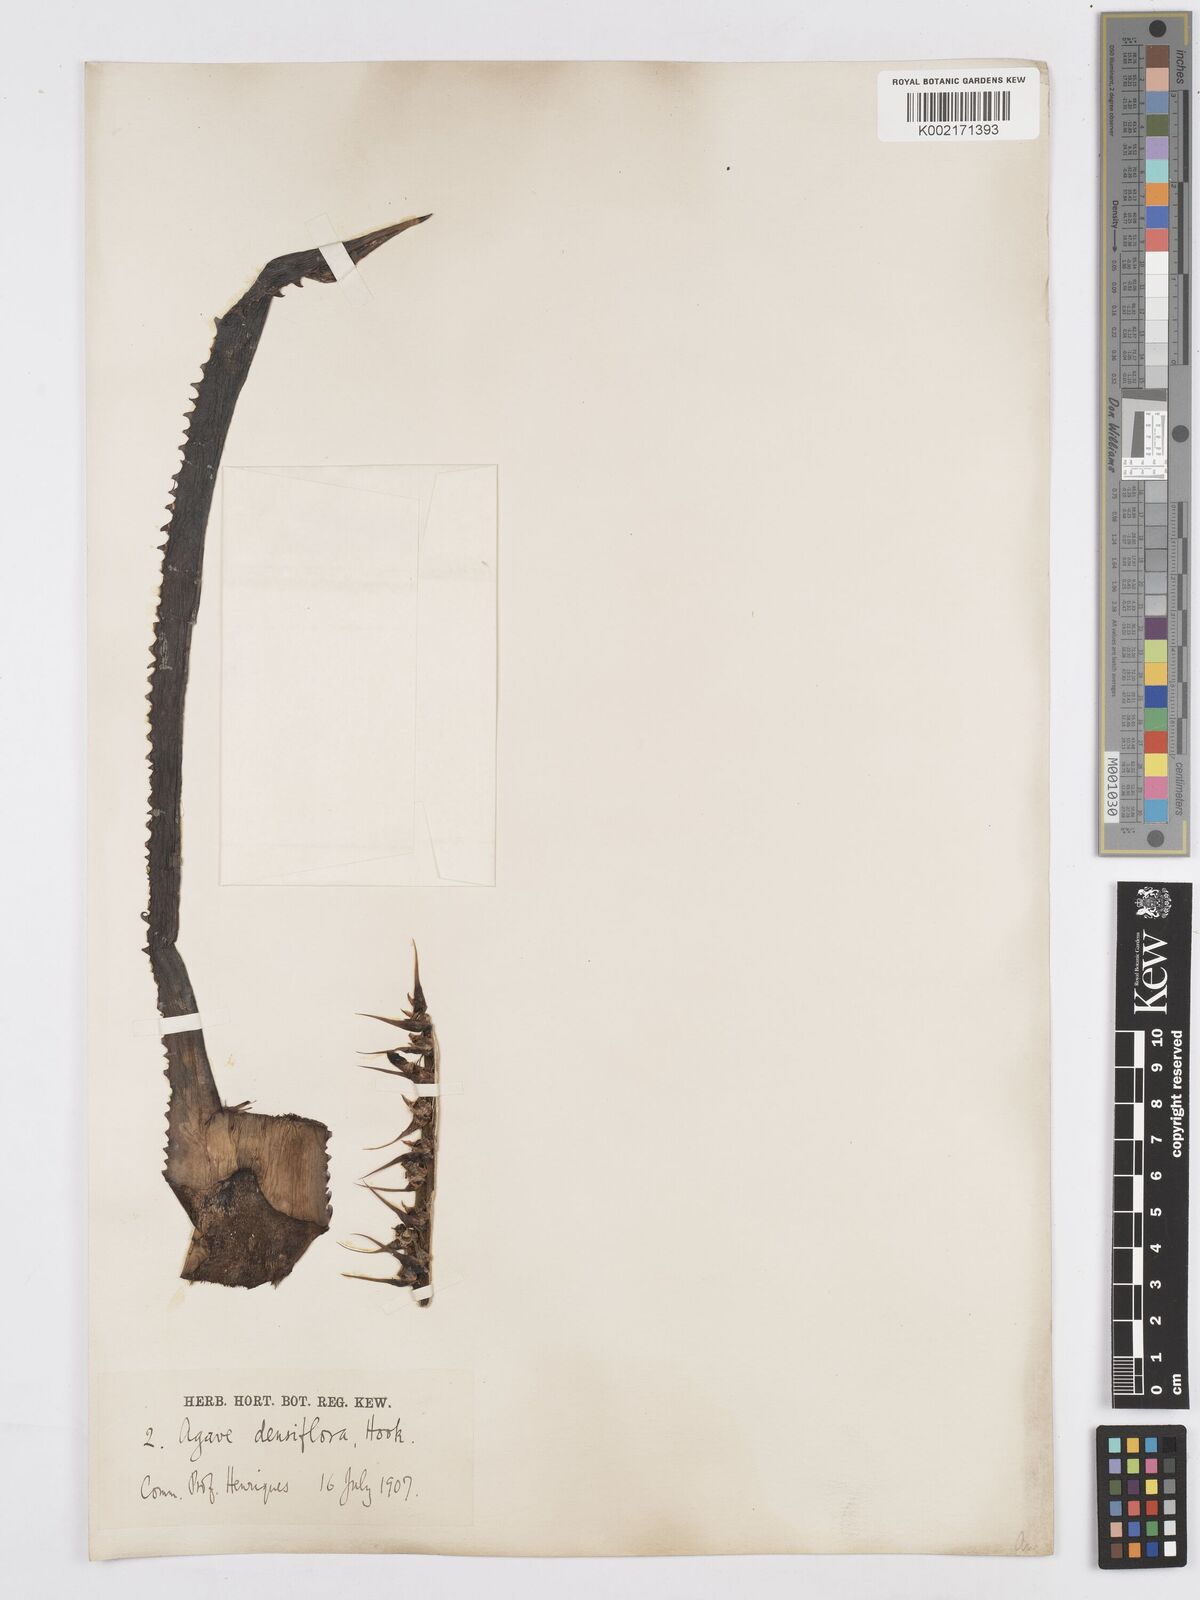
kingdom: Plantae
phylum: Tracheophyta
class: Liliopsida
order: Asparagales
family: Asparagaceae
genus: Agave
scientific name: Agave polyacantha
